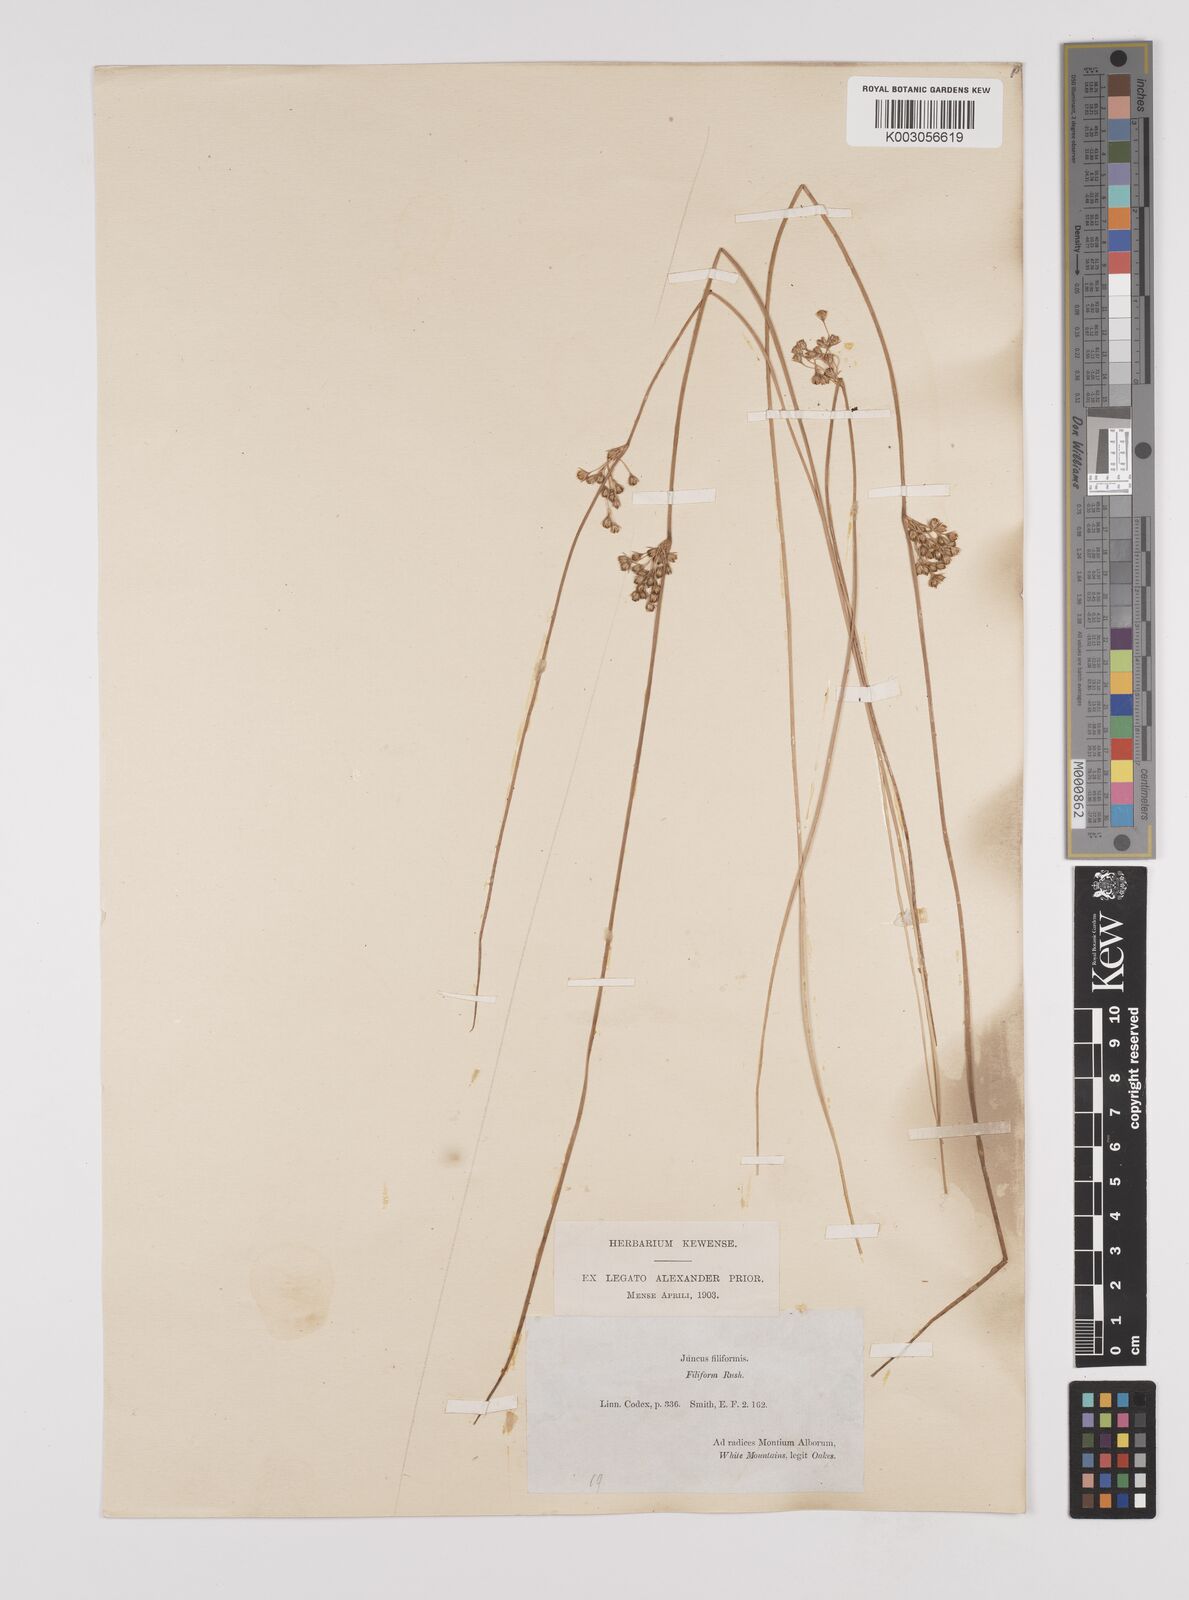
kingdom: Plantae
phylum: Tracheophyta
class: Liliopsida
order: Poales
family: Juncaceae
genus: Juncus
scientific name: Juncus filiformis
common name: Thread rush
